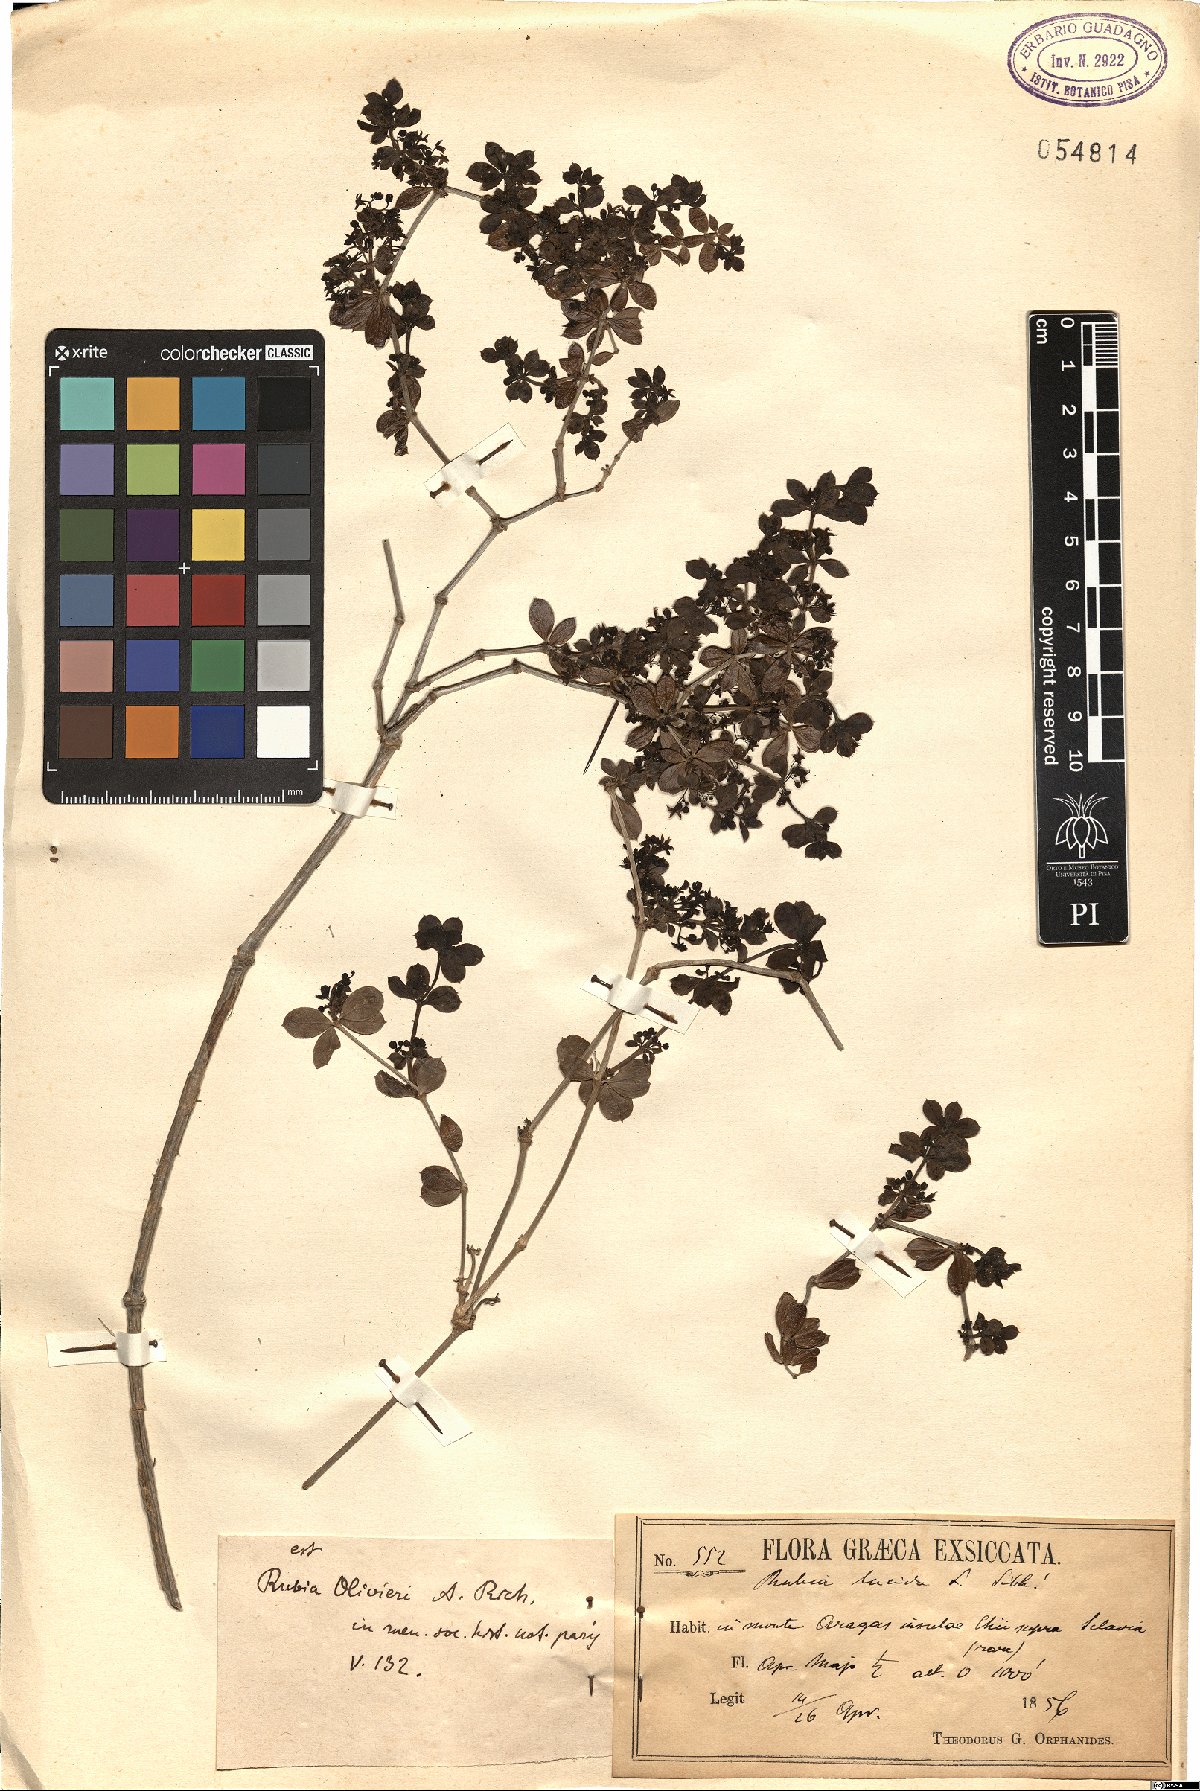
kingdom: Plantae
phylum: Tracheophyta
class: Magnoliopsida
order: Gentianales
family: Rubiaceae
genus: Rubia
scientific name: Rubia tenuifolia
